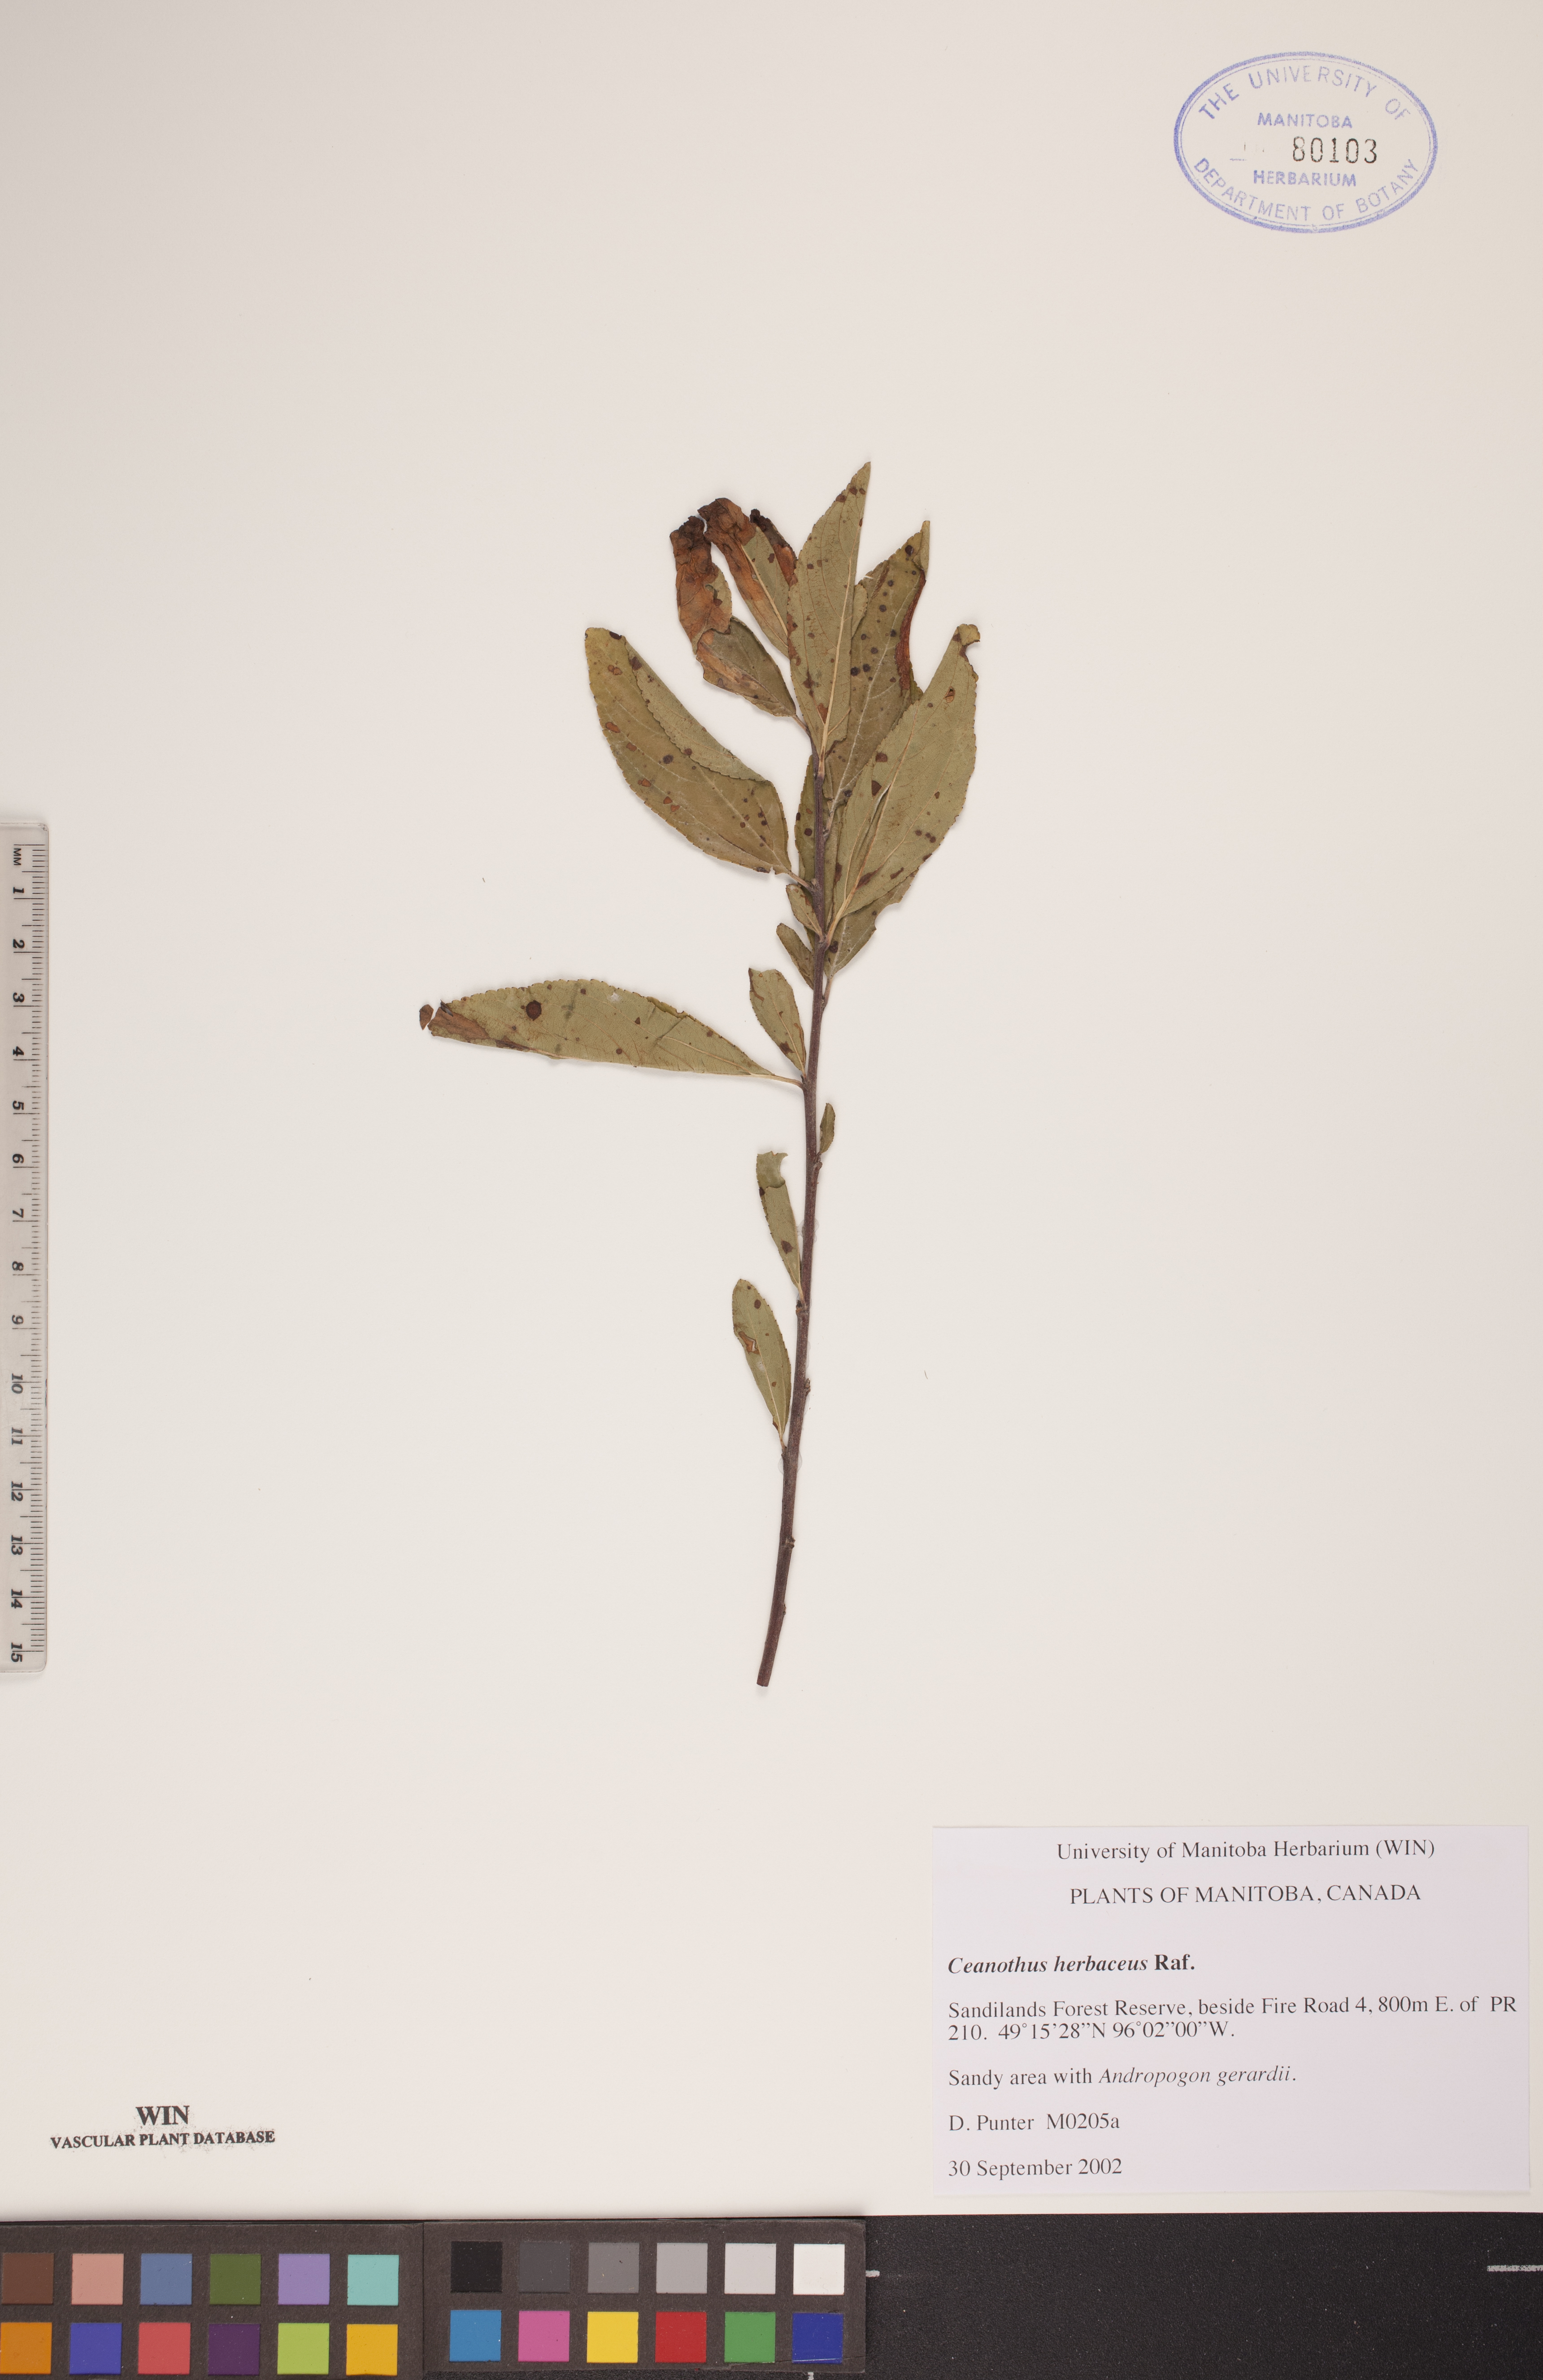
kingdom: Plantae
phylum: Tracheophyta
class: Magnoliopsida
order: Rosales
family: Rhamnaceae
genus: Ceanothus
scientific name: Ceanothus herbaceus
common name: Inland ceanothus
